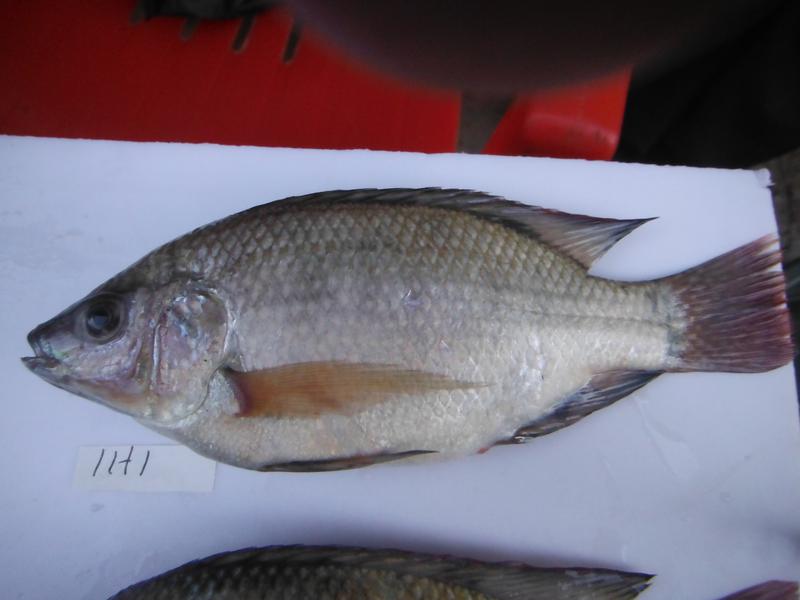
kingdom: Animalia
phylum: Chordata
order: Perciformes
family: Cichlidae
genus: Oreochromis
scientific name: Oreochromis rukwaensis
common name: Lake rukwa tilapia
